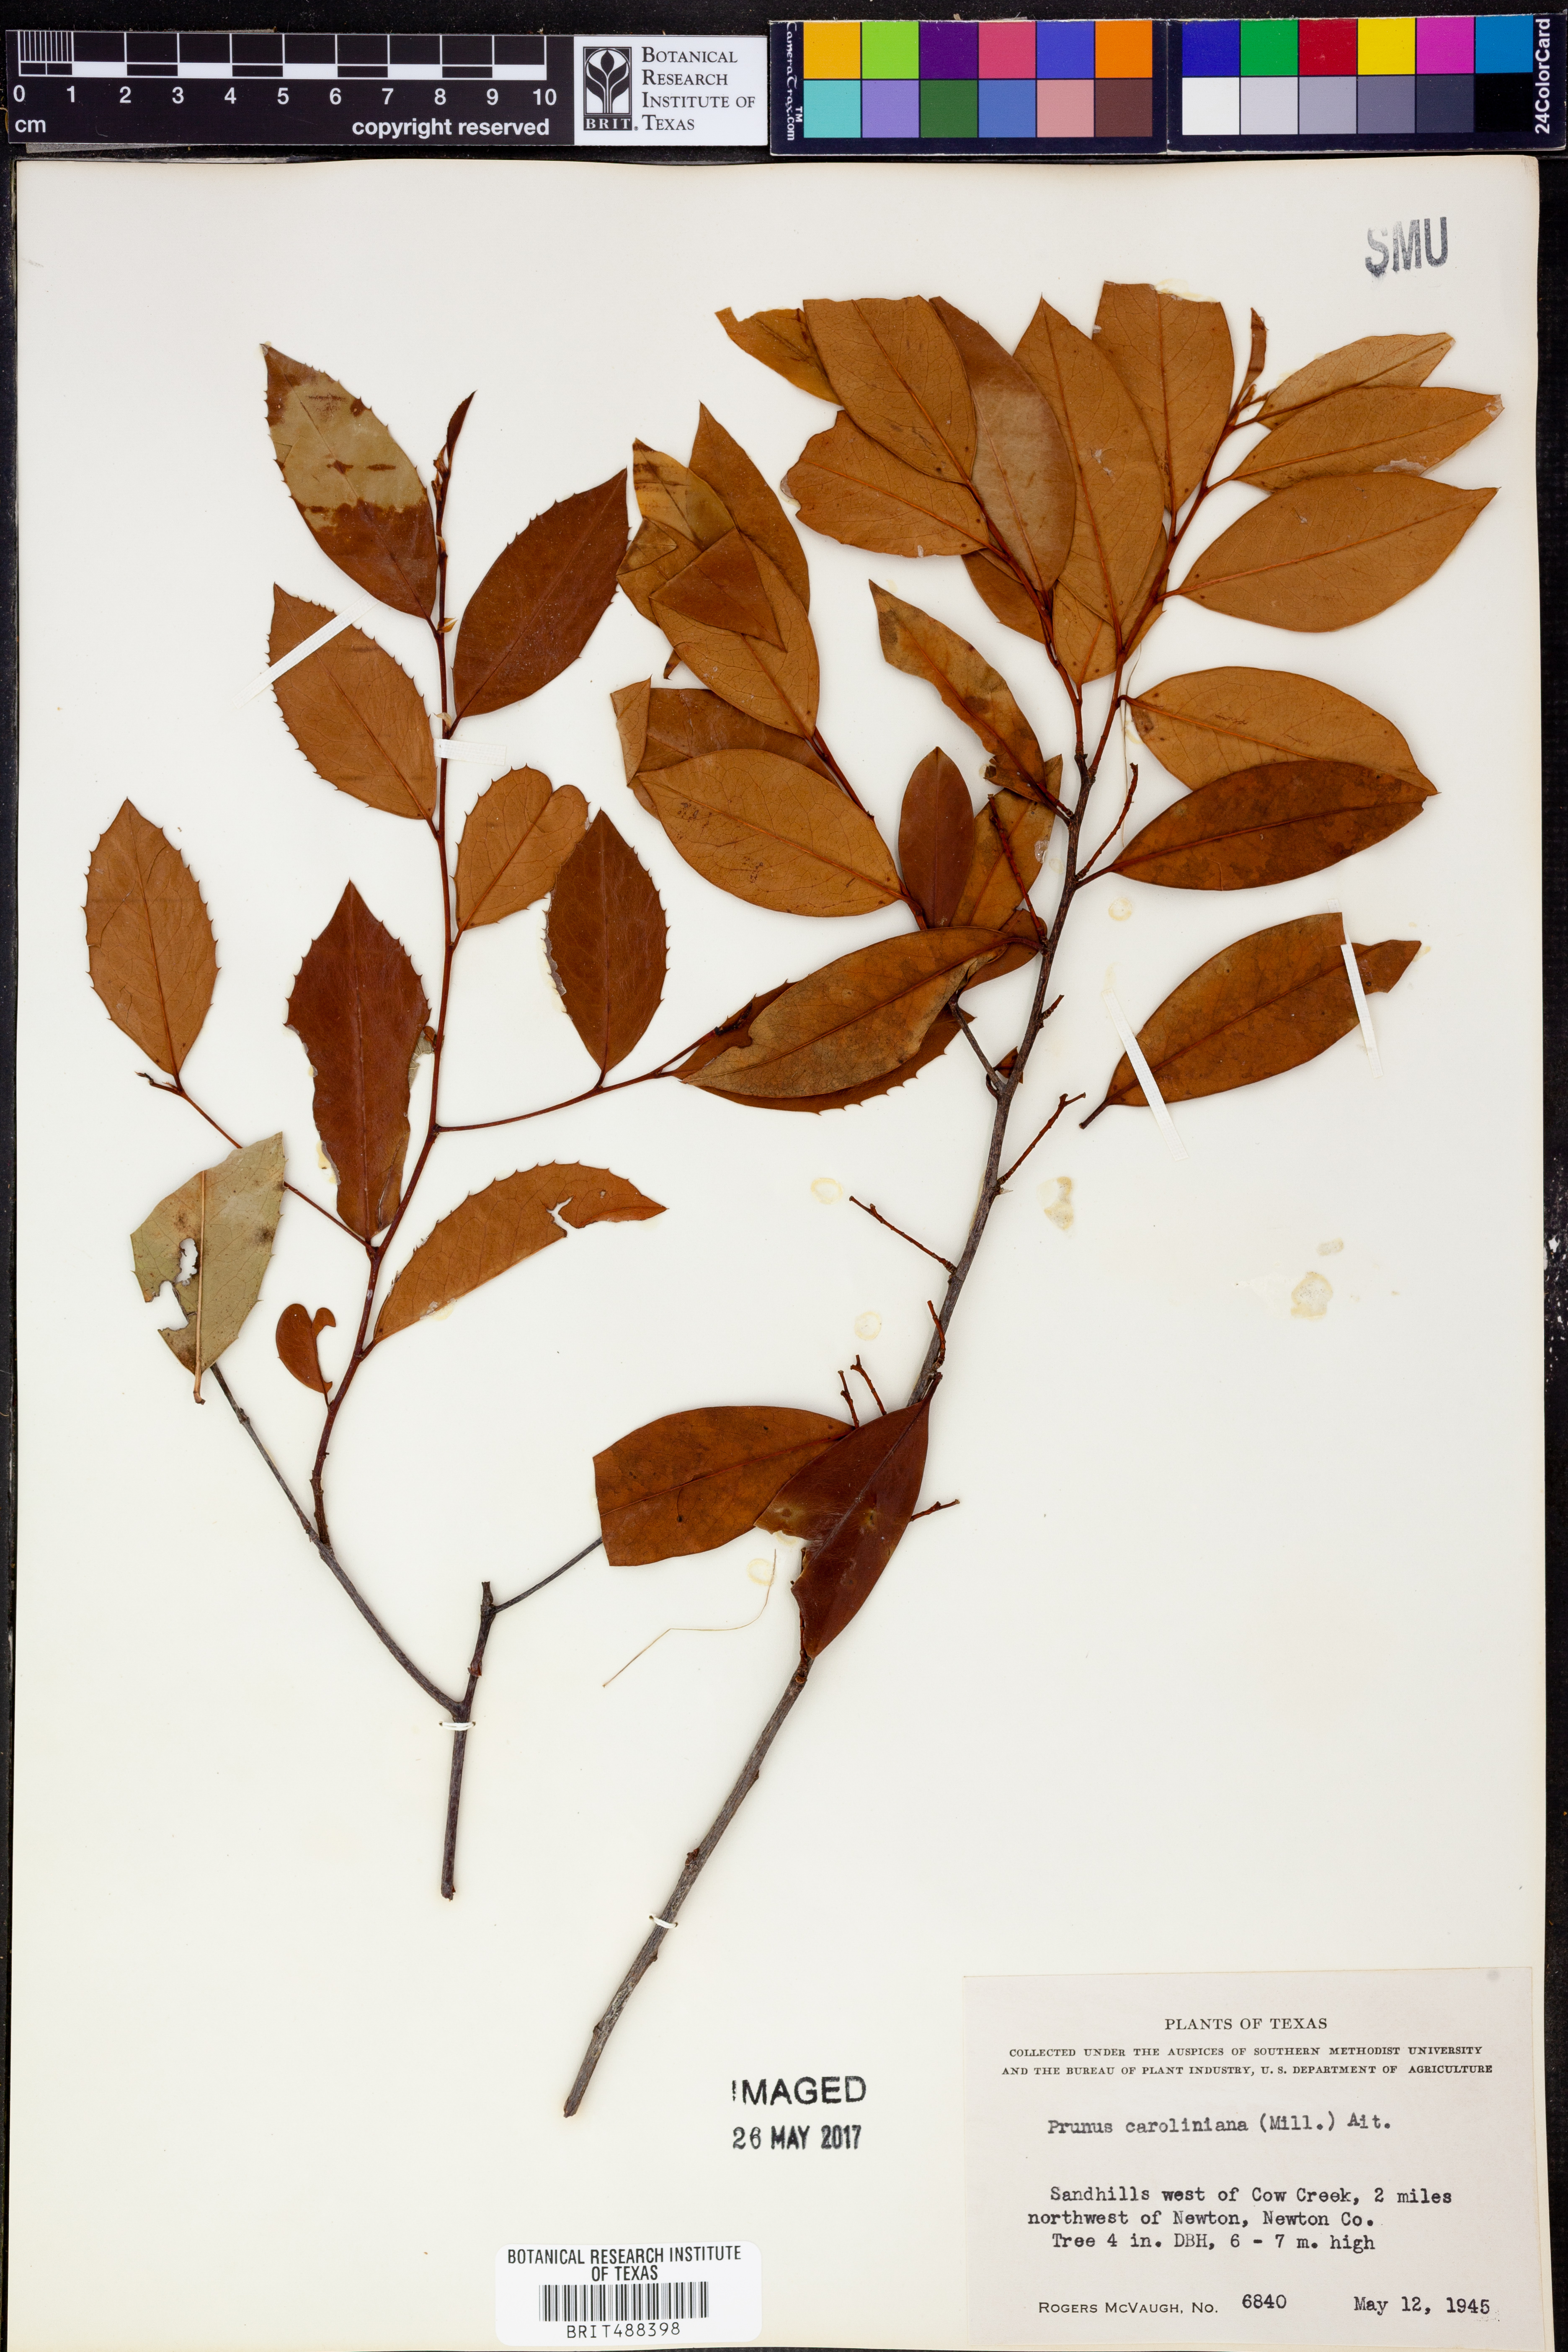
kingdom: Plantae
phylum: Tracheophyta
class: Magnoliopsida
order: Rosales
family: Rosaceae
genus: Prunus
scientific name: Prunus caroliniana
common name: Carolina laurel cherry
